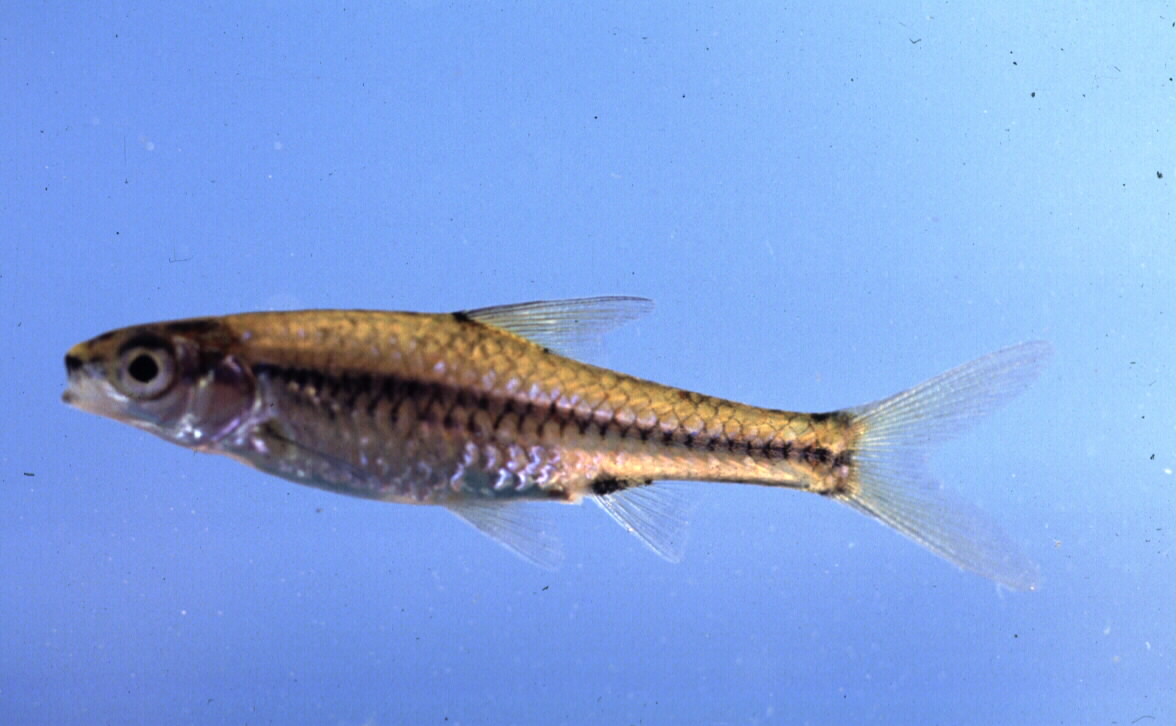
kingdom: Animalia
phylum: Chordata
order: Cypriniformes
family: Cyprinidae
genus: Enteromius
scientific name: Enteromius barnardi
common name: Blackback barb
